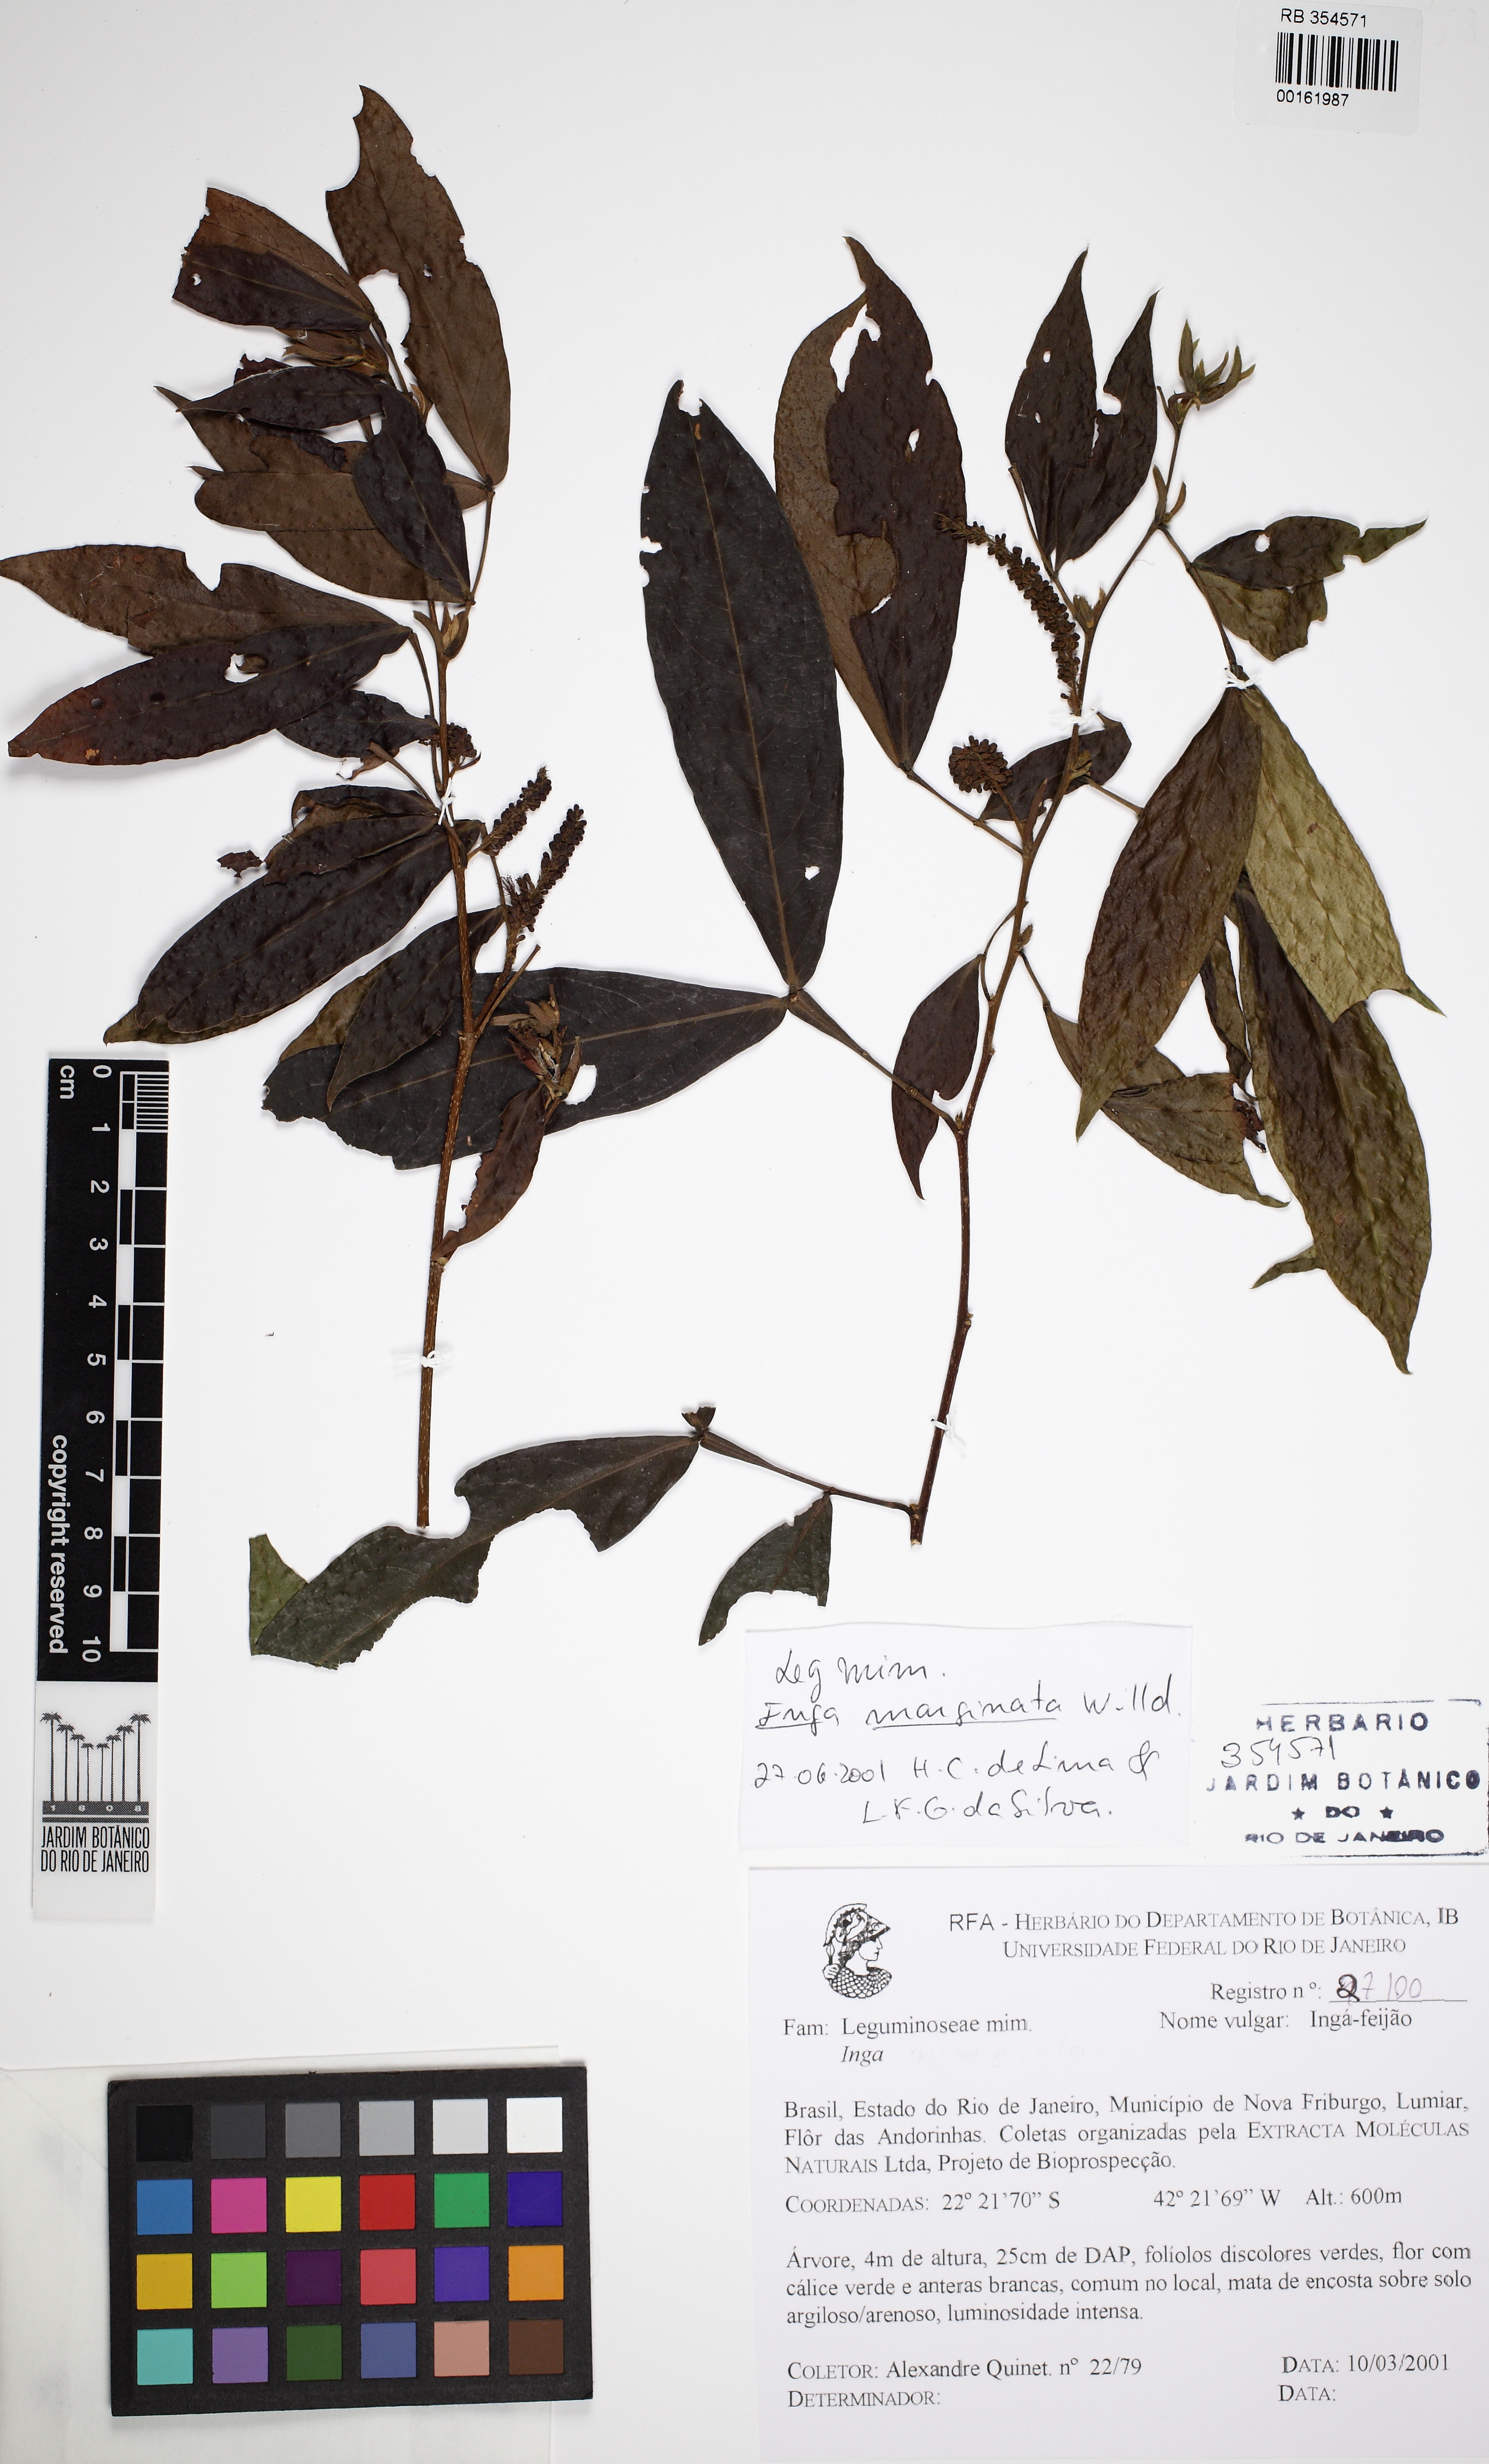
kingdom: Plantae
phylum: Tracheophyta
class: Magnoliopsida
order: Fabales
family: Fabaceae
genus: Inga
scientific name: Inga marginata
